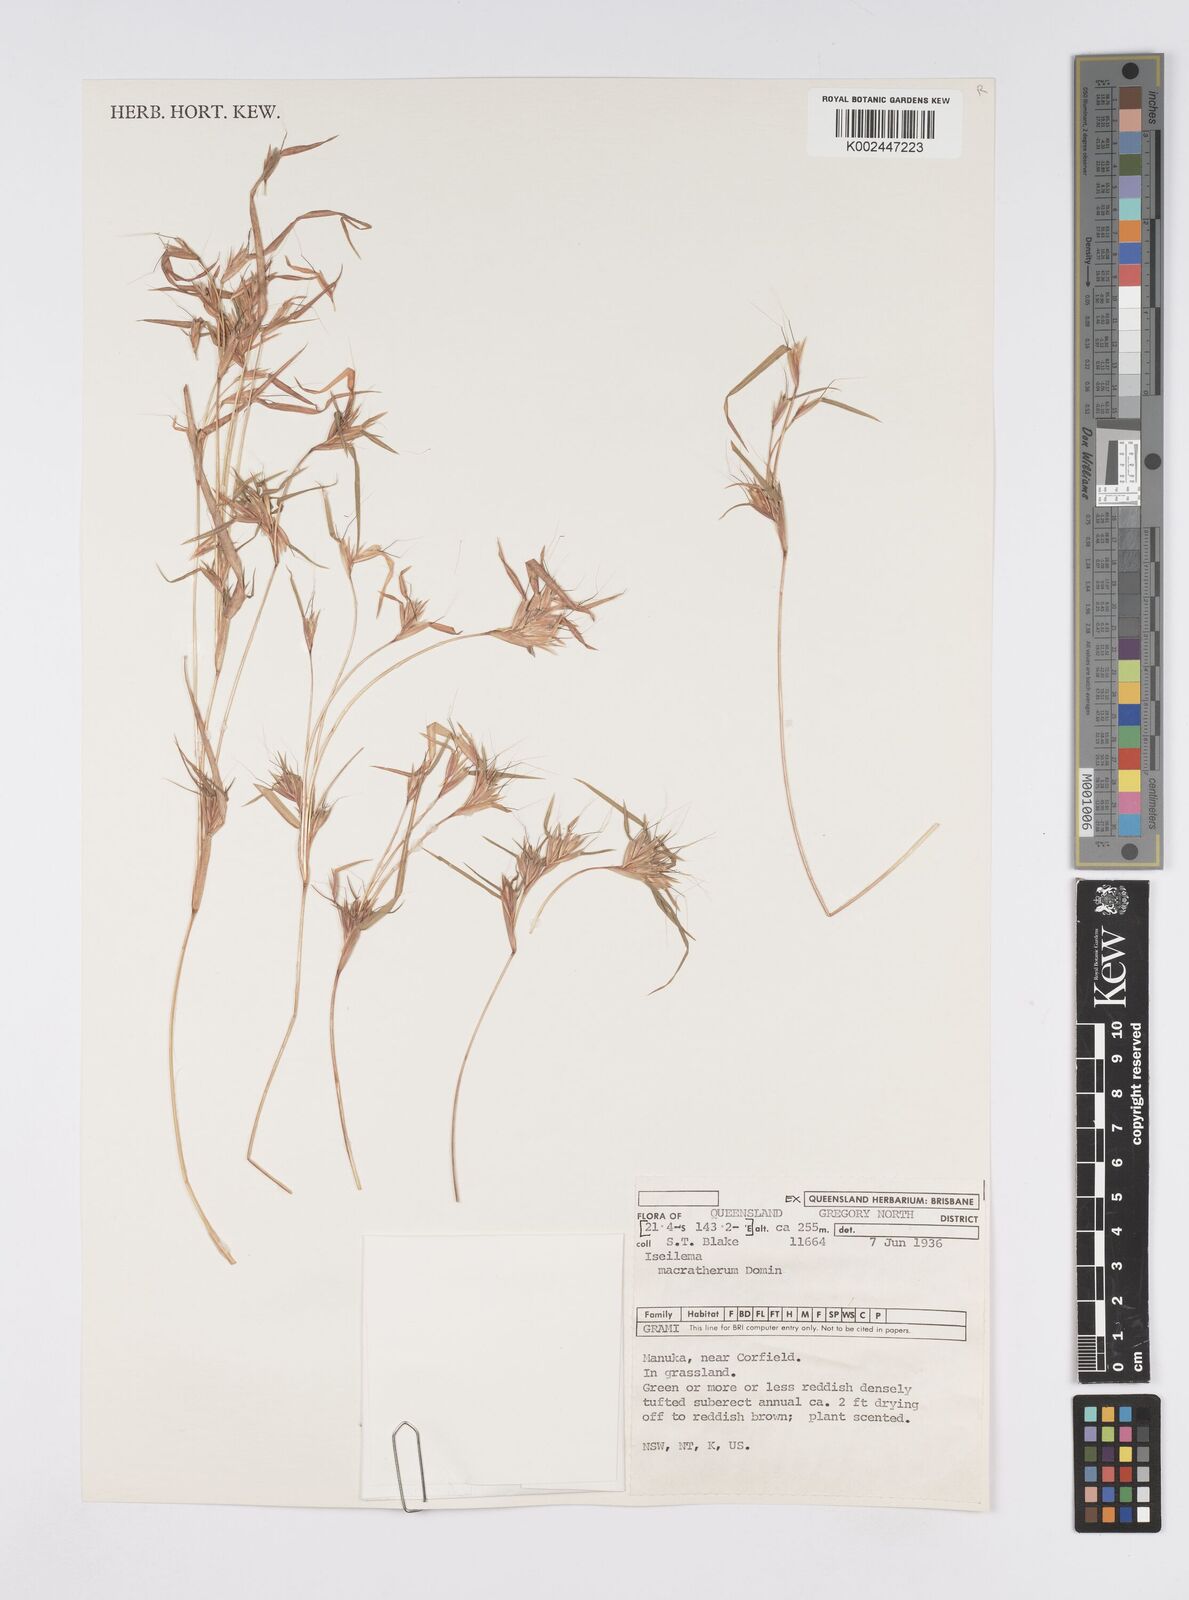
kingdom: Plantae
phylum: Tracheophyta
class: Liliopsida
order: Poales
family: Poaceae
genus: Iseilema
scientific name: Iseilema macratherum
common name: Bull flinders grass
